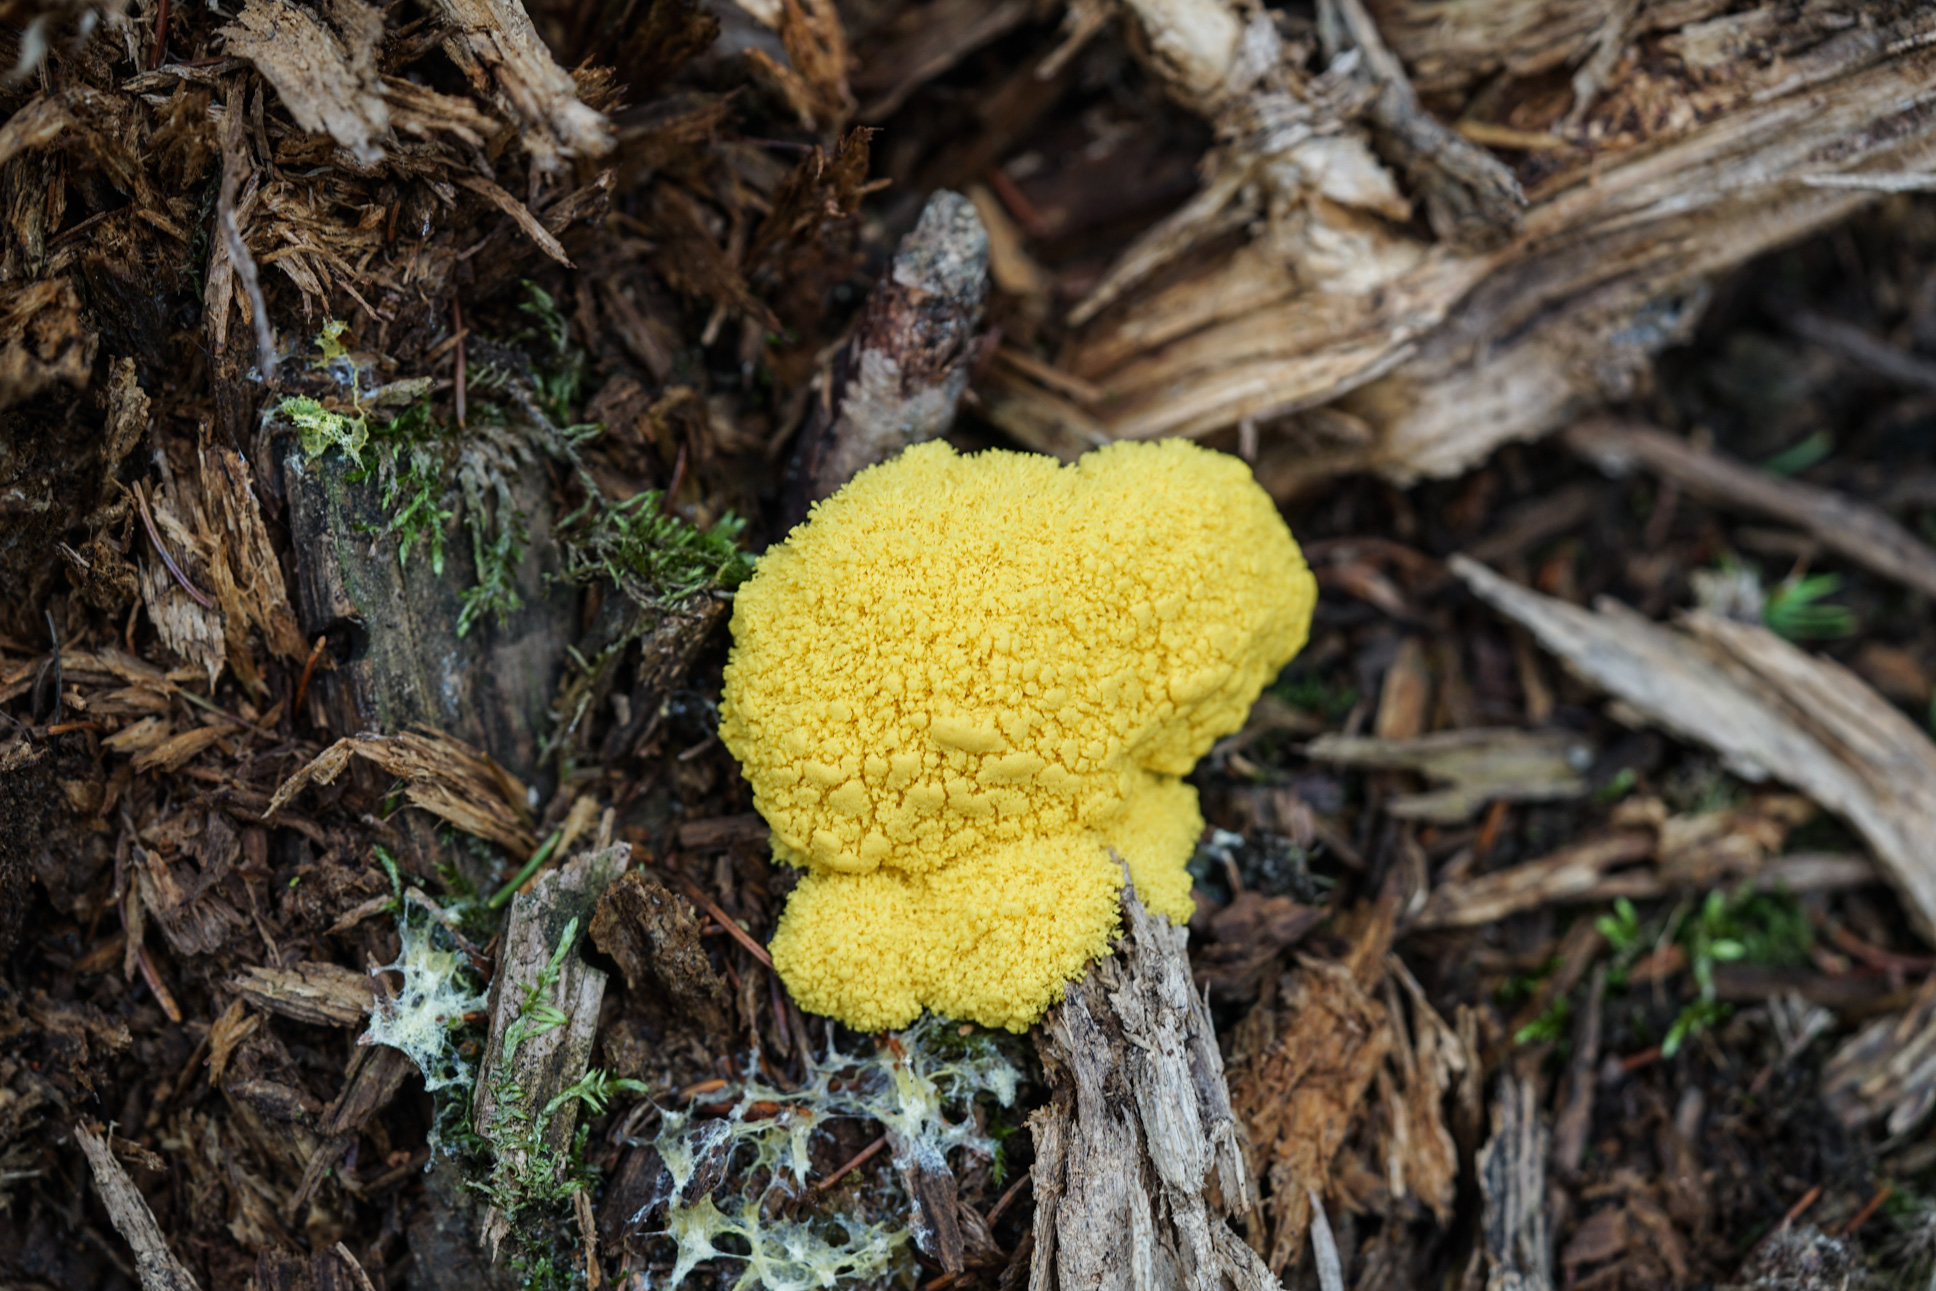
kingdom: Protozoa
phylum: Mycetozoa
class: Myxomycetes
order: Physarales
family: Physaraceae
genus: Fuligo
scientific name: Fuligo septica
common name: Dog vomit slime mold
